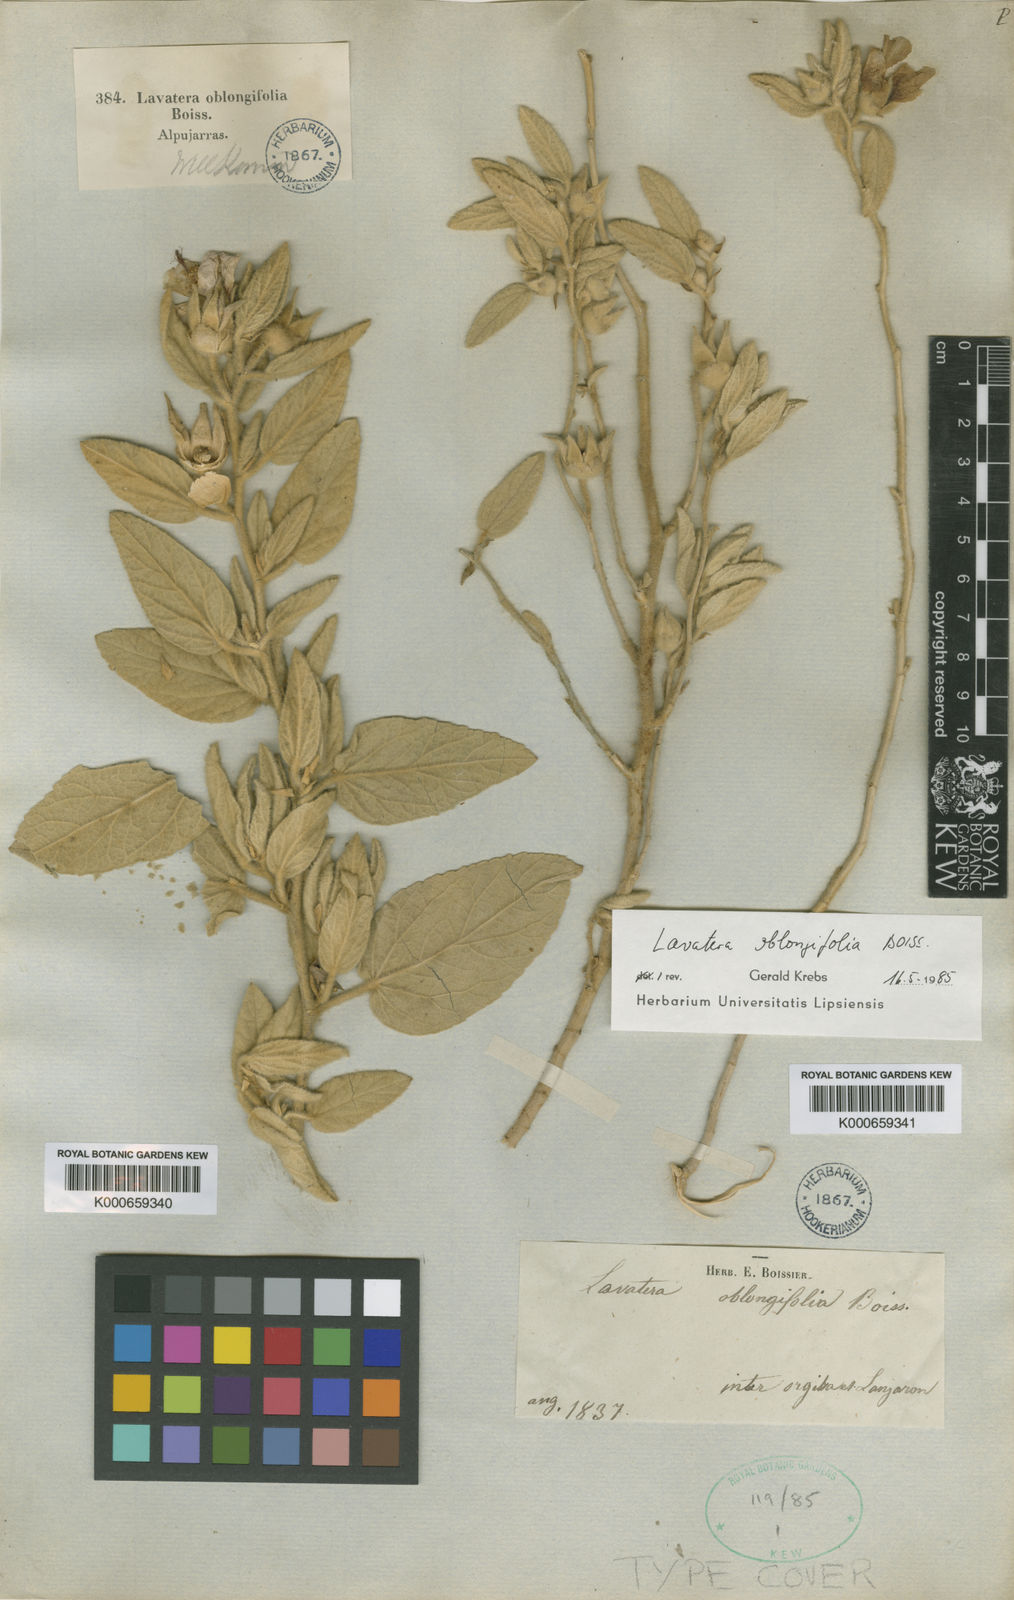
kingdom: Plantae
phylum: Tracheophyta
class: Magnoliopsida
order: Malvales
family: Malvaceae
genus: Malva
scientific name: Malva oblongifolia
